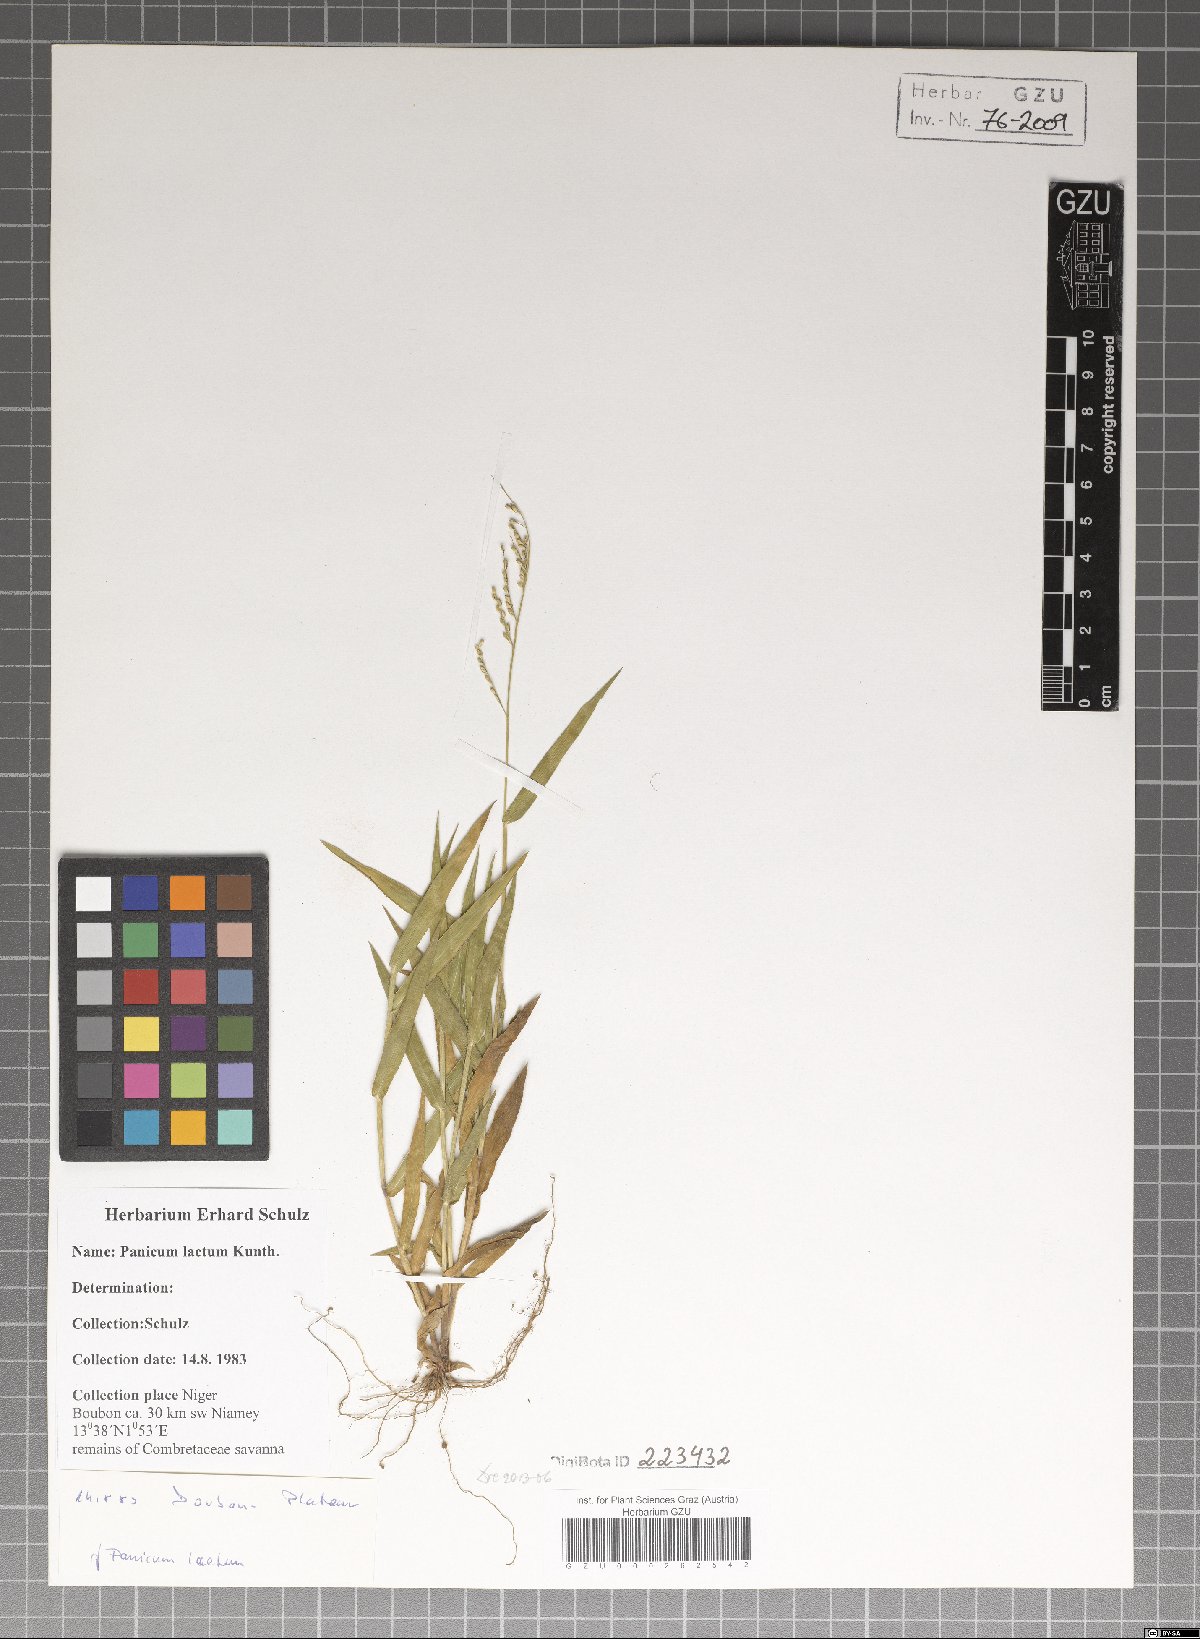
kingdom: Plantae
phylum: Tracheophyta
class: Liliopsida
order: Poales
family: Poaceae
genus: Panicum
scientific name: Panicum laetum
